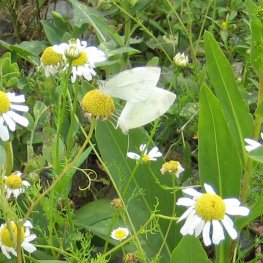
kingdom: Animalia
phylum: Arthropoda
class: Insecta
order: Lepidoptera
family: Pieridae
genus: Pieris
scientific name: Pieris rapae
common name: Cabbage White
